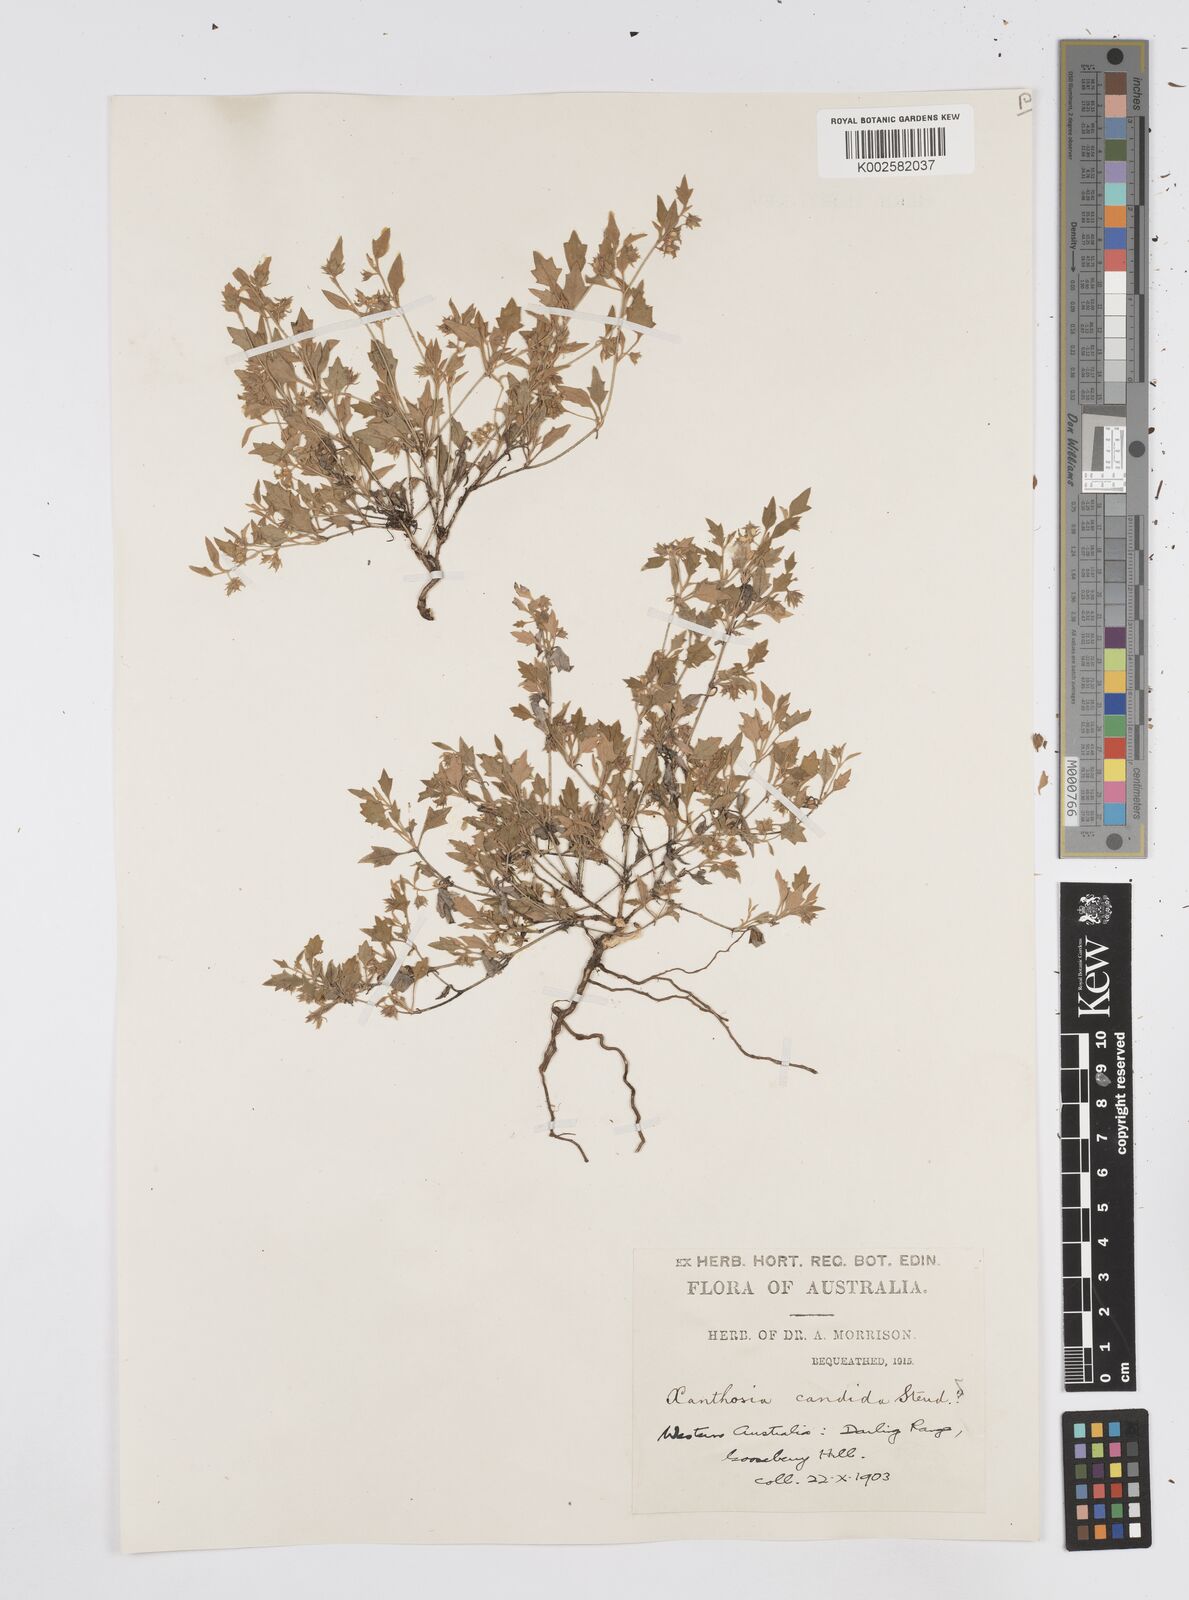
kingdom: Plantae
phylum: Tracheophyta
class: Magnoliopsida
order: Apiales
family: Apiaceae
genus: Xanthosia
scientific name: Xanthosia candida
